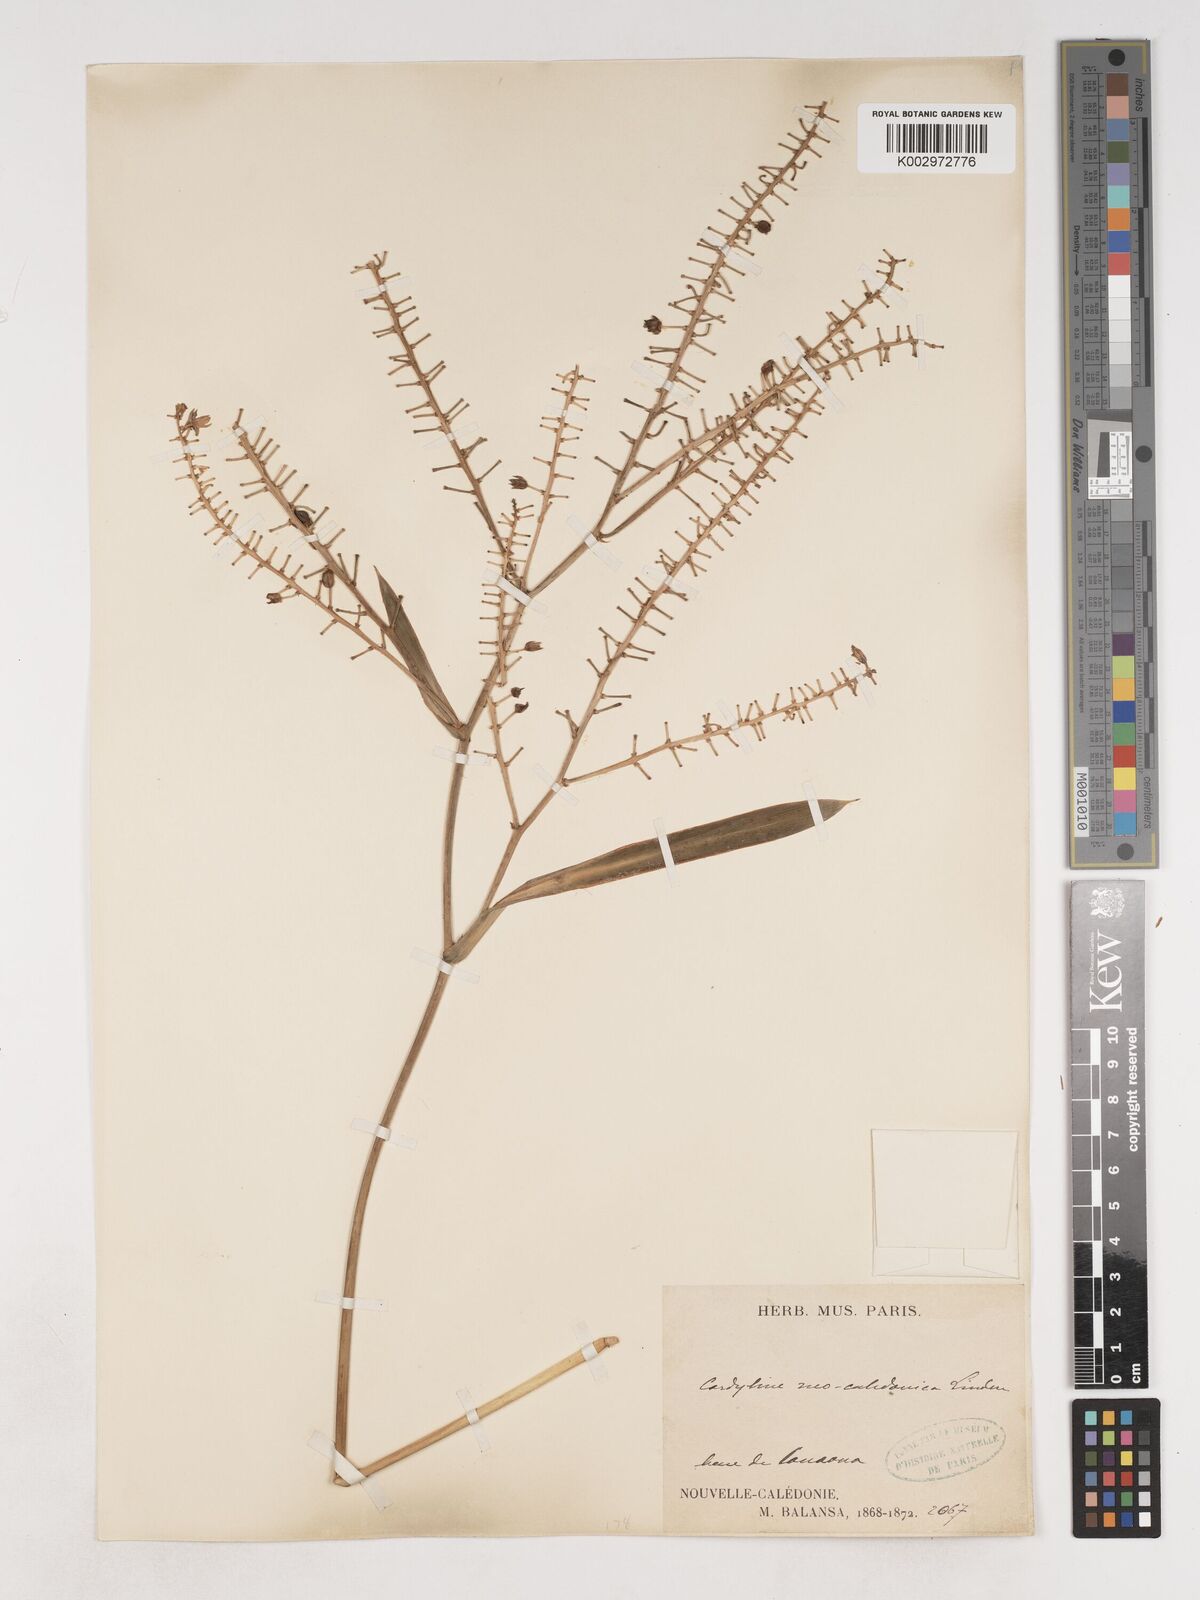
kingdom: Plantae
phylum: Tracheophyta
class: Liliopsida
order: Asparagales
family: Asparagaceae
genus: Cordyline
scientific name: Cordyline neocaledonica
